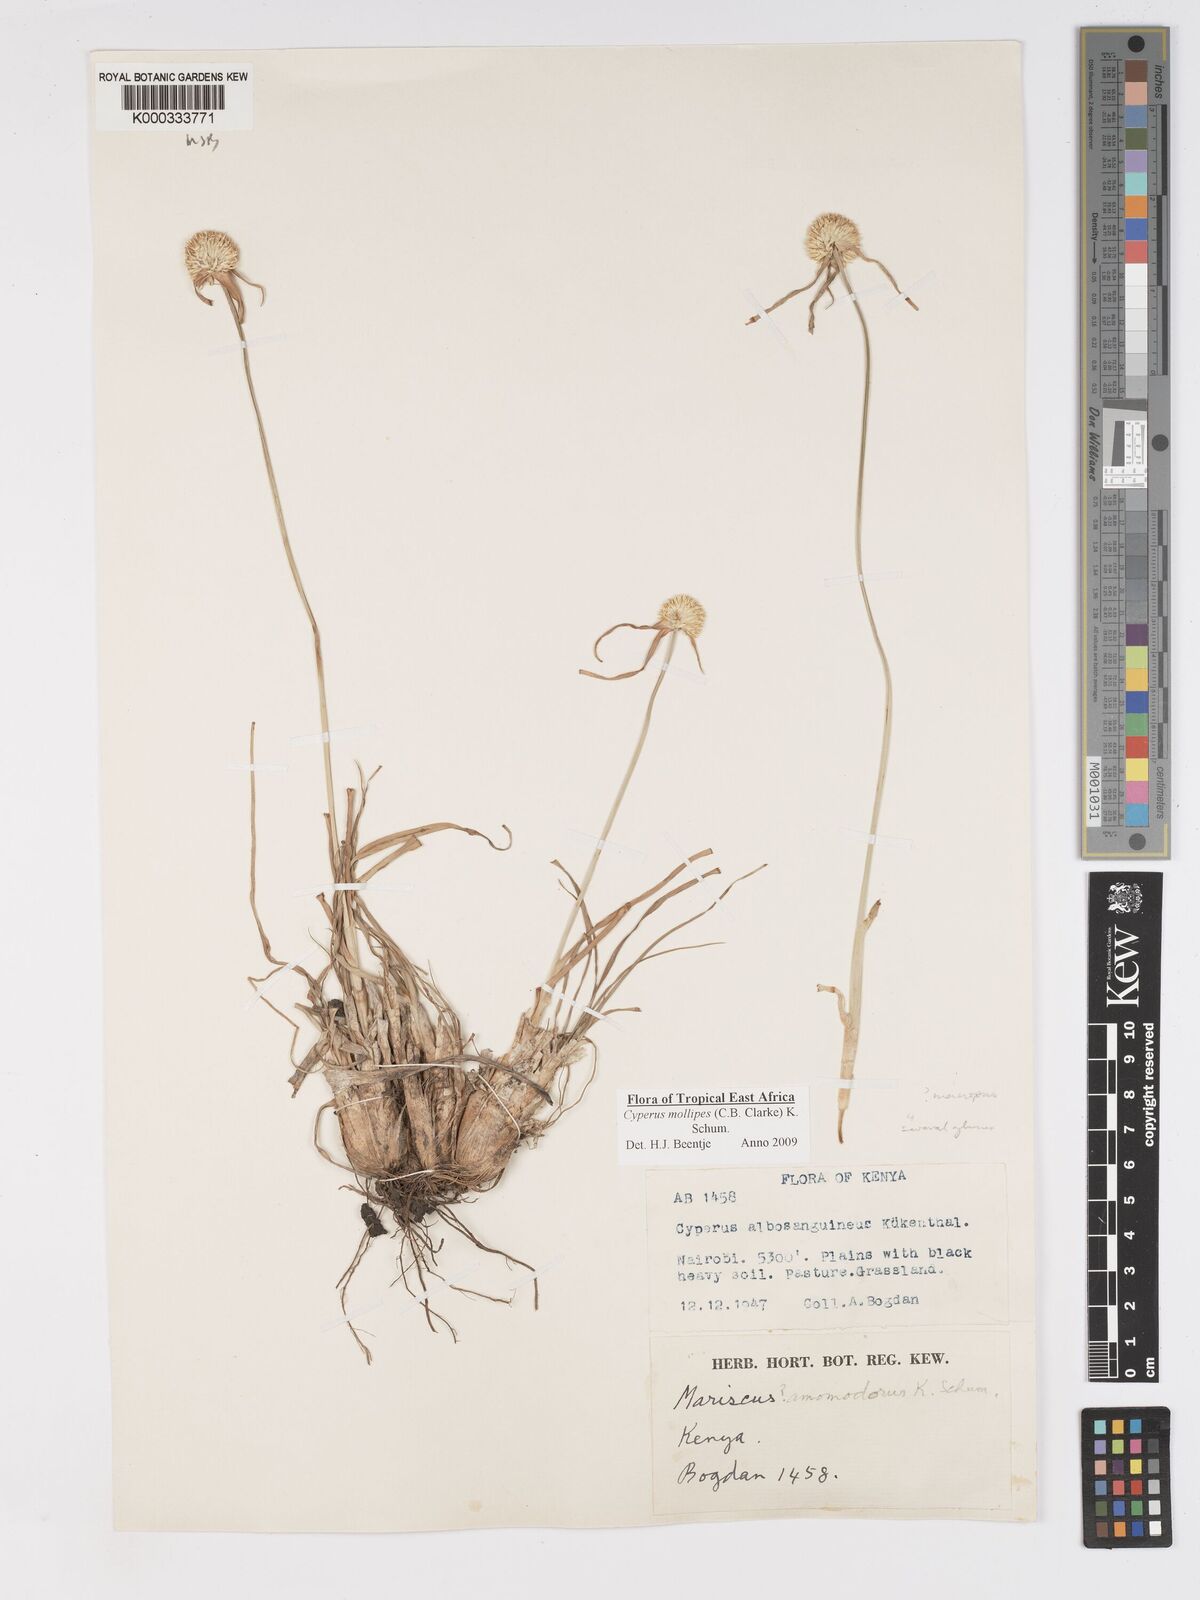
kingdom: Plantae
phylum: Tracheophyta
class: Liliopsida
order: Poales
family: Cyperaceae
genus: Cyperus
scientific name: Cyperus
